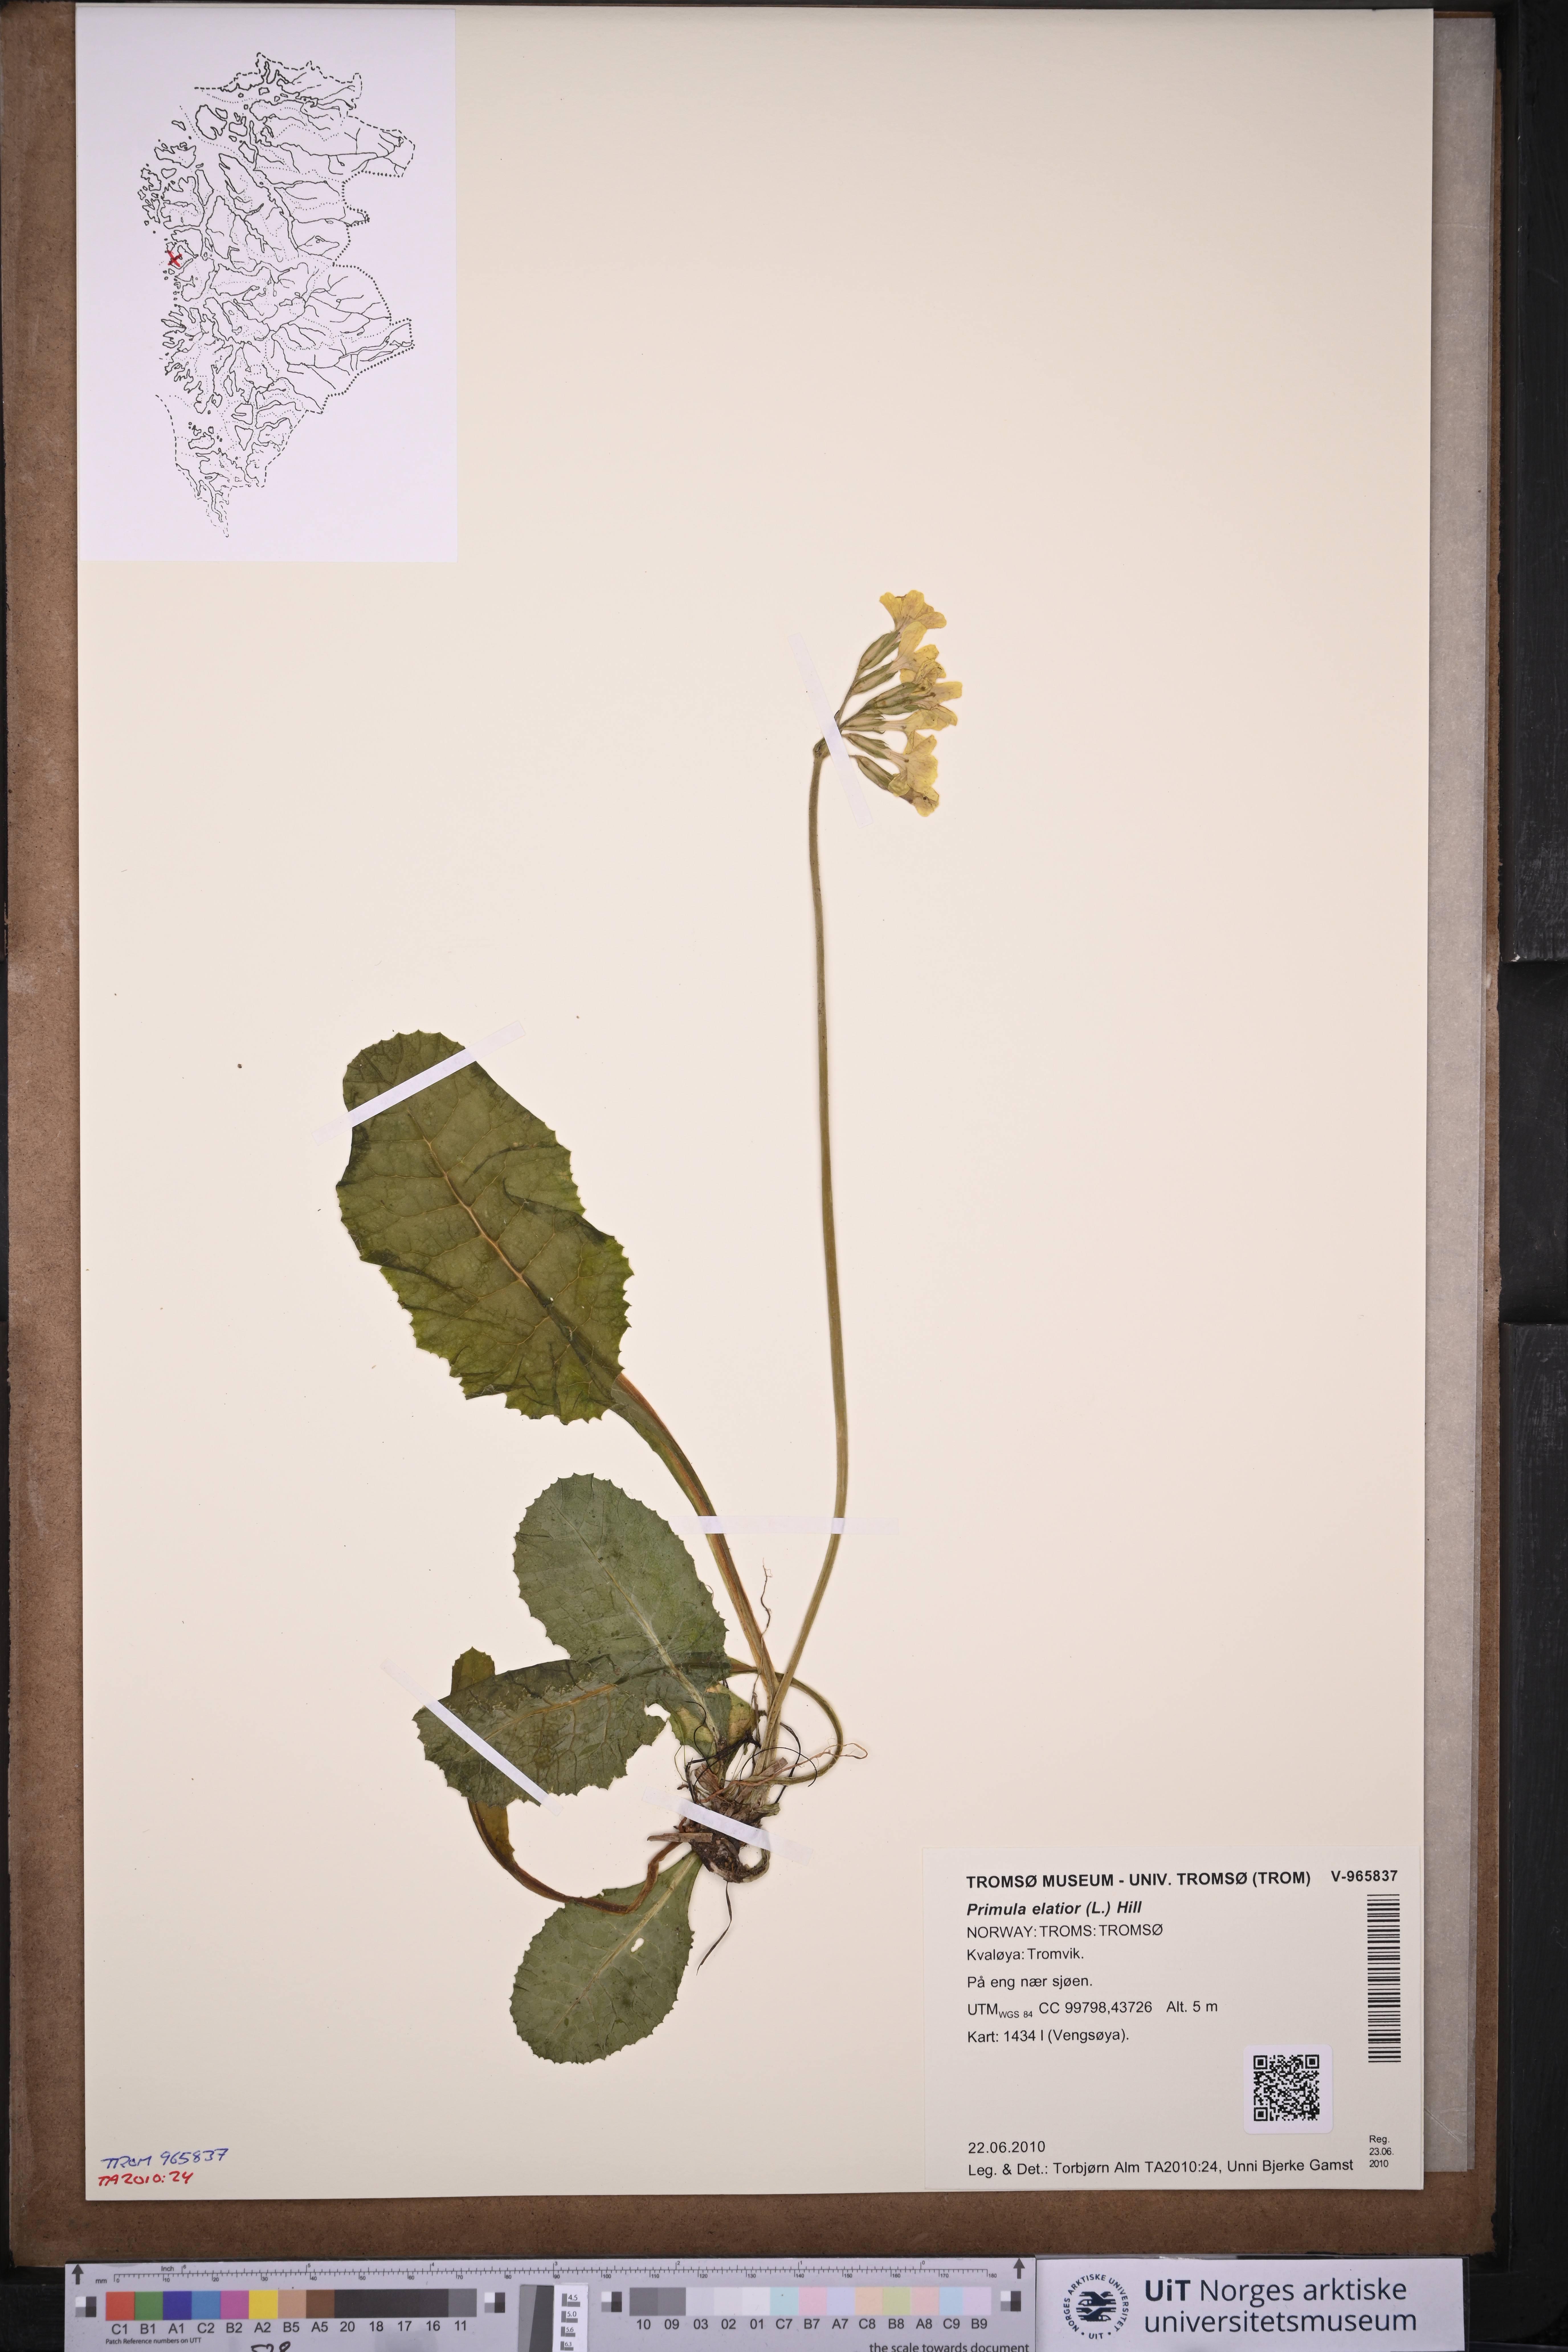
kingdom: Plantae
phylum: Tracheophyta
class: Magnoliopsida
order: Ericales
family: Primulaceae
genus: Primula
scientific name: Primula elatior
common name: Oxlip
